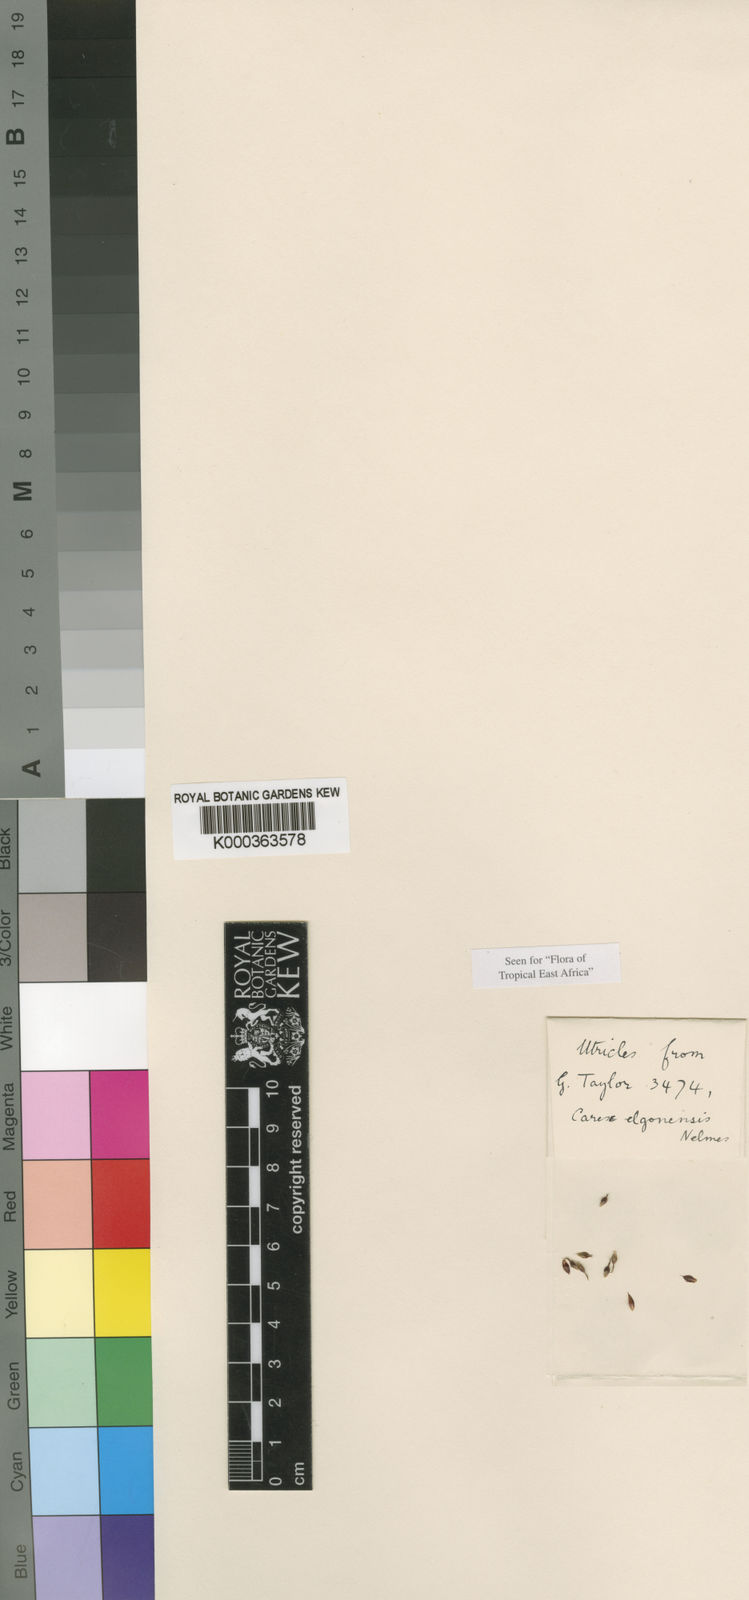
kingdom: Plantae
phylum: Tracheophyta
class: Liliopsida
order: Poales
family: Cyperaceae
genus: Carex
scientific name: Carex elgonensis
